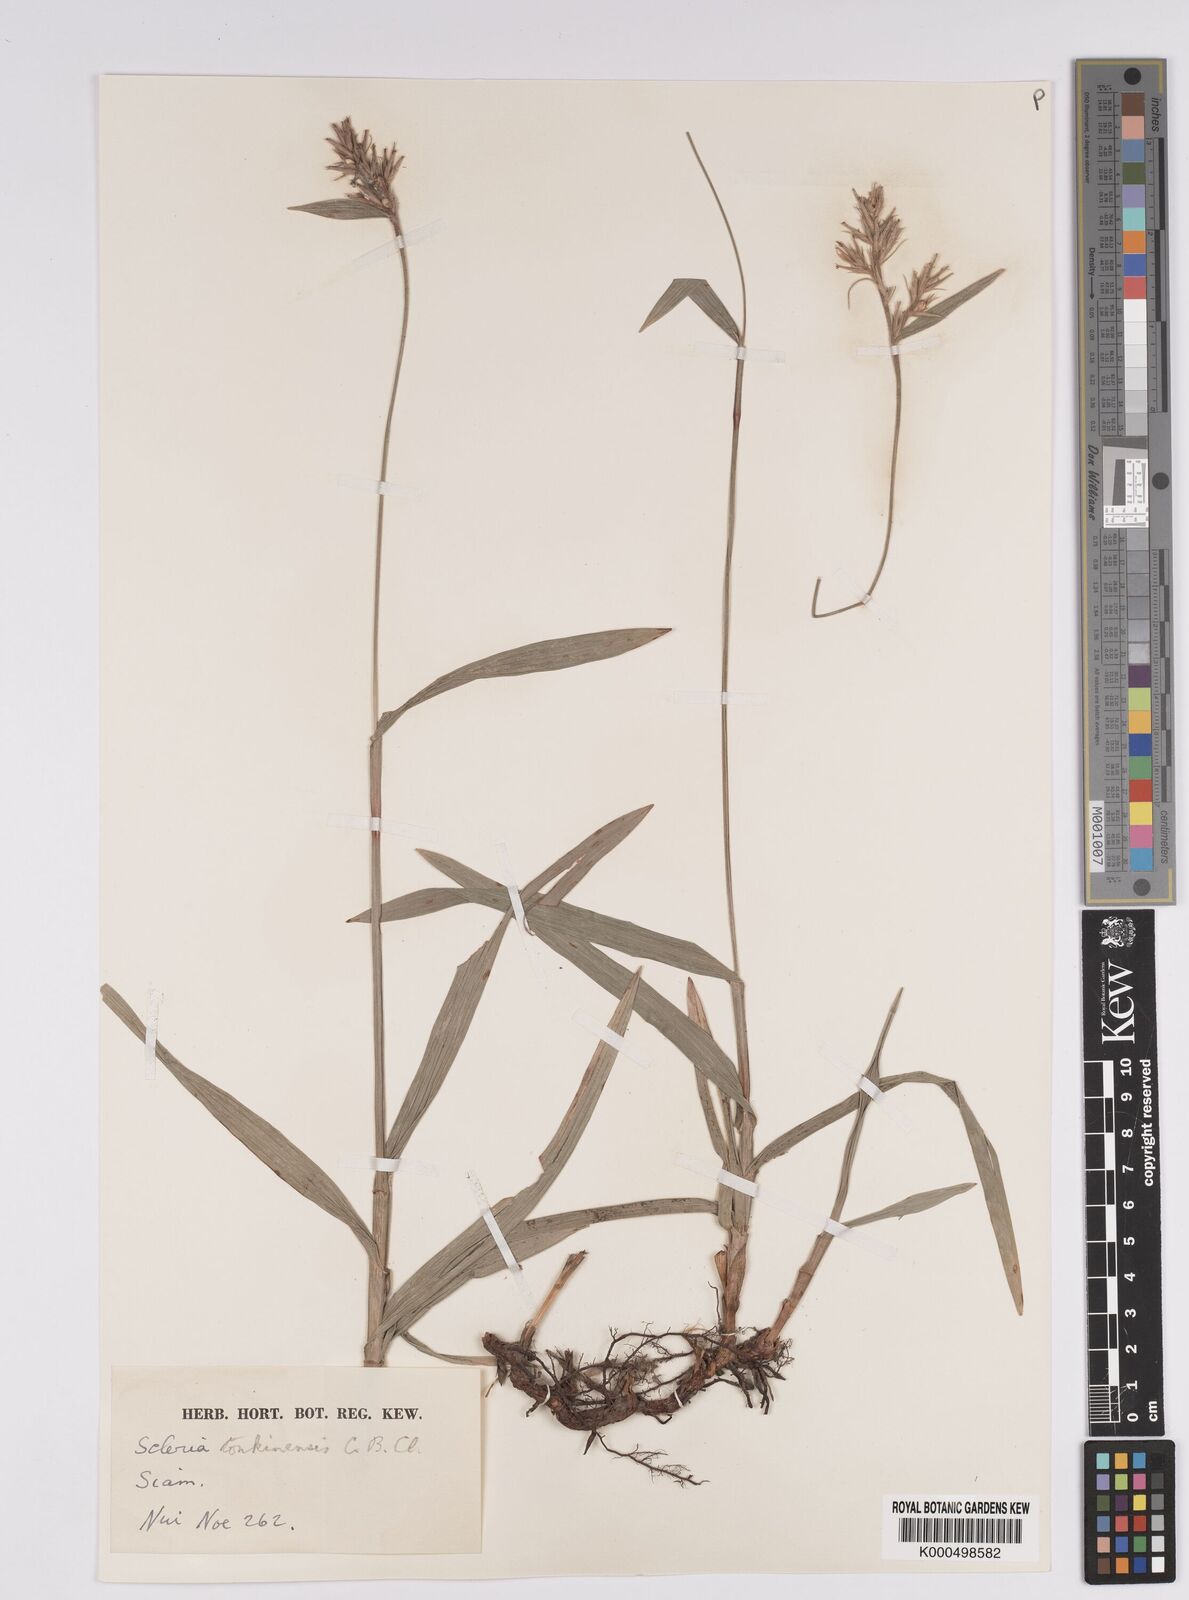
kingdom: Plantae
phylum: Tracheophyta
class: Liliopsida
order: Poales
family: Cyperaceae
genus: Scleria
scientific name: Scleria tonkinensis
